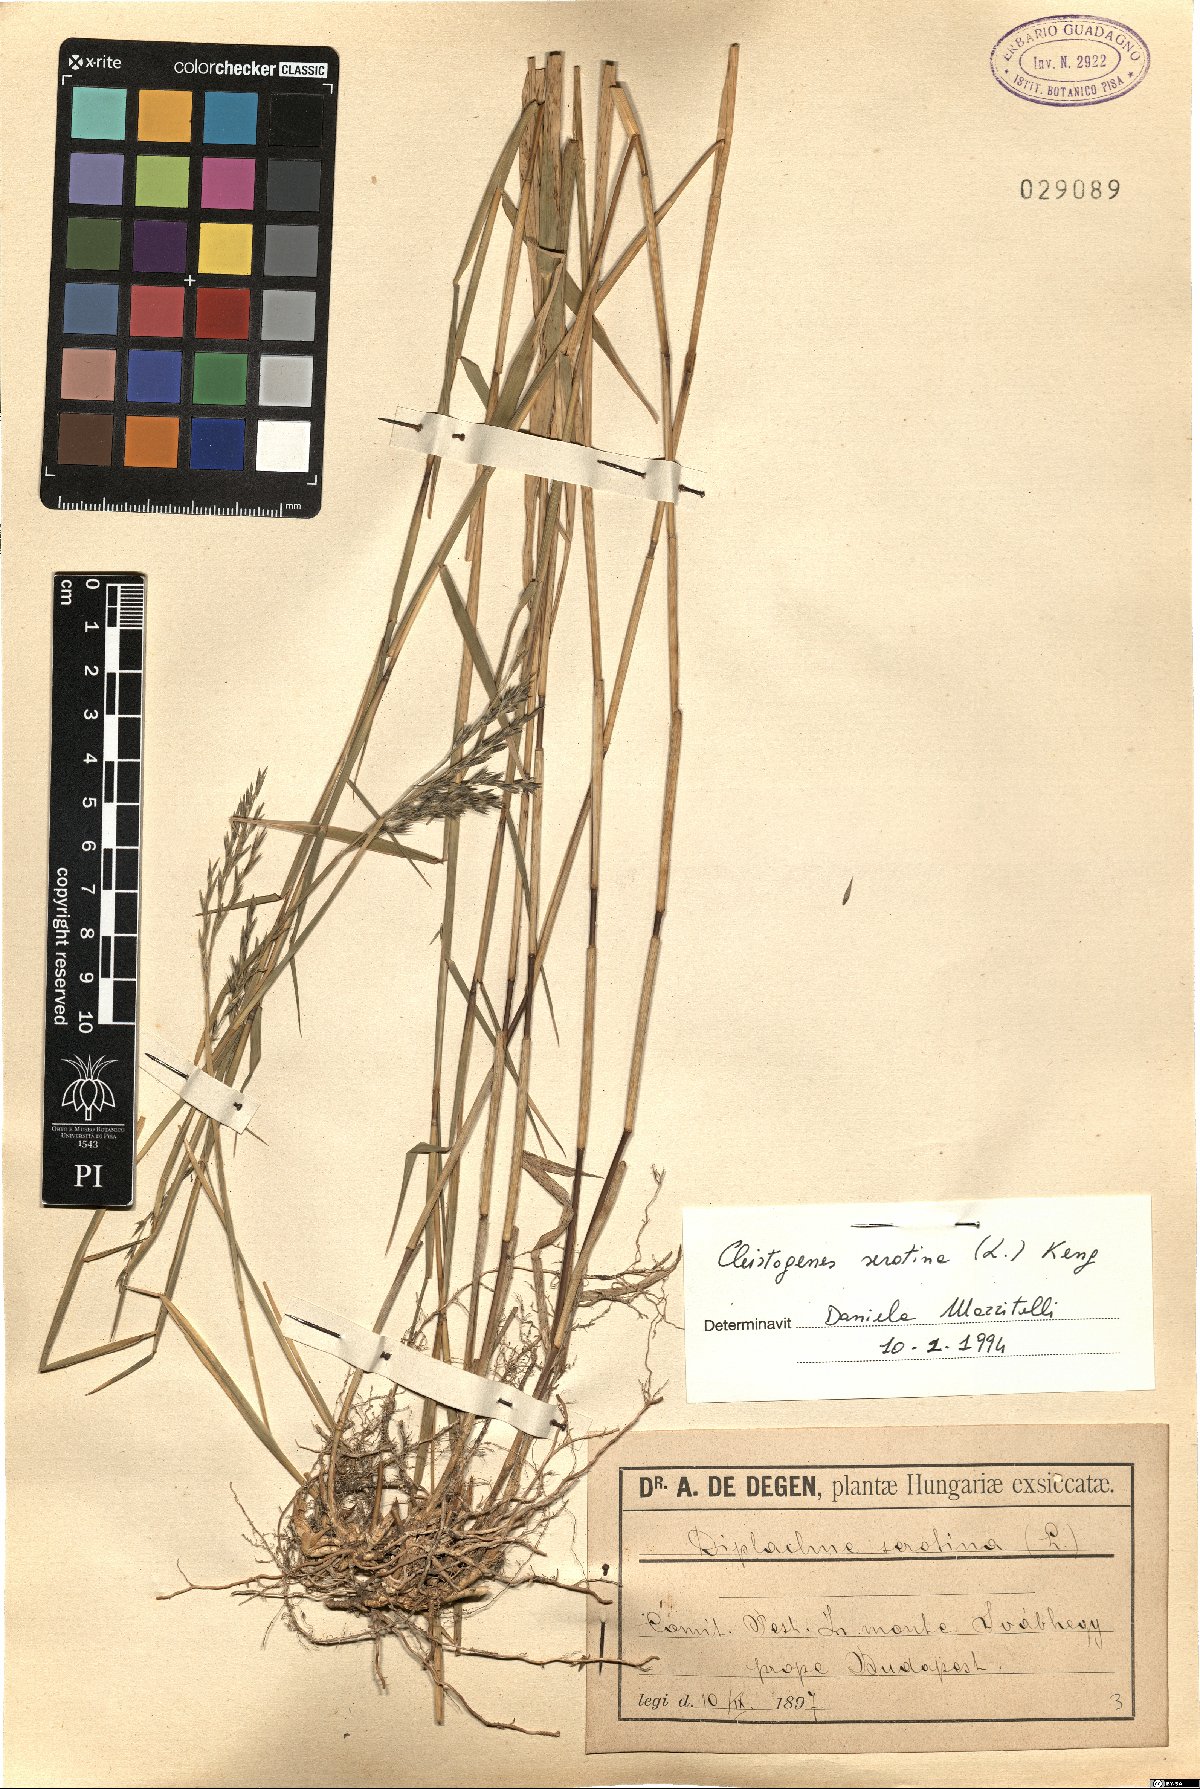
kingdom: Plantae
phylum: Tracheophyta
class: Liliopsida
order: Poales
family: Poaceae
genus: Cleistogenes
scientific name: Cleistogenes serotina
